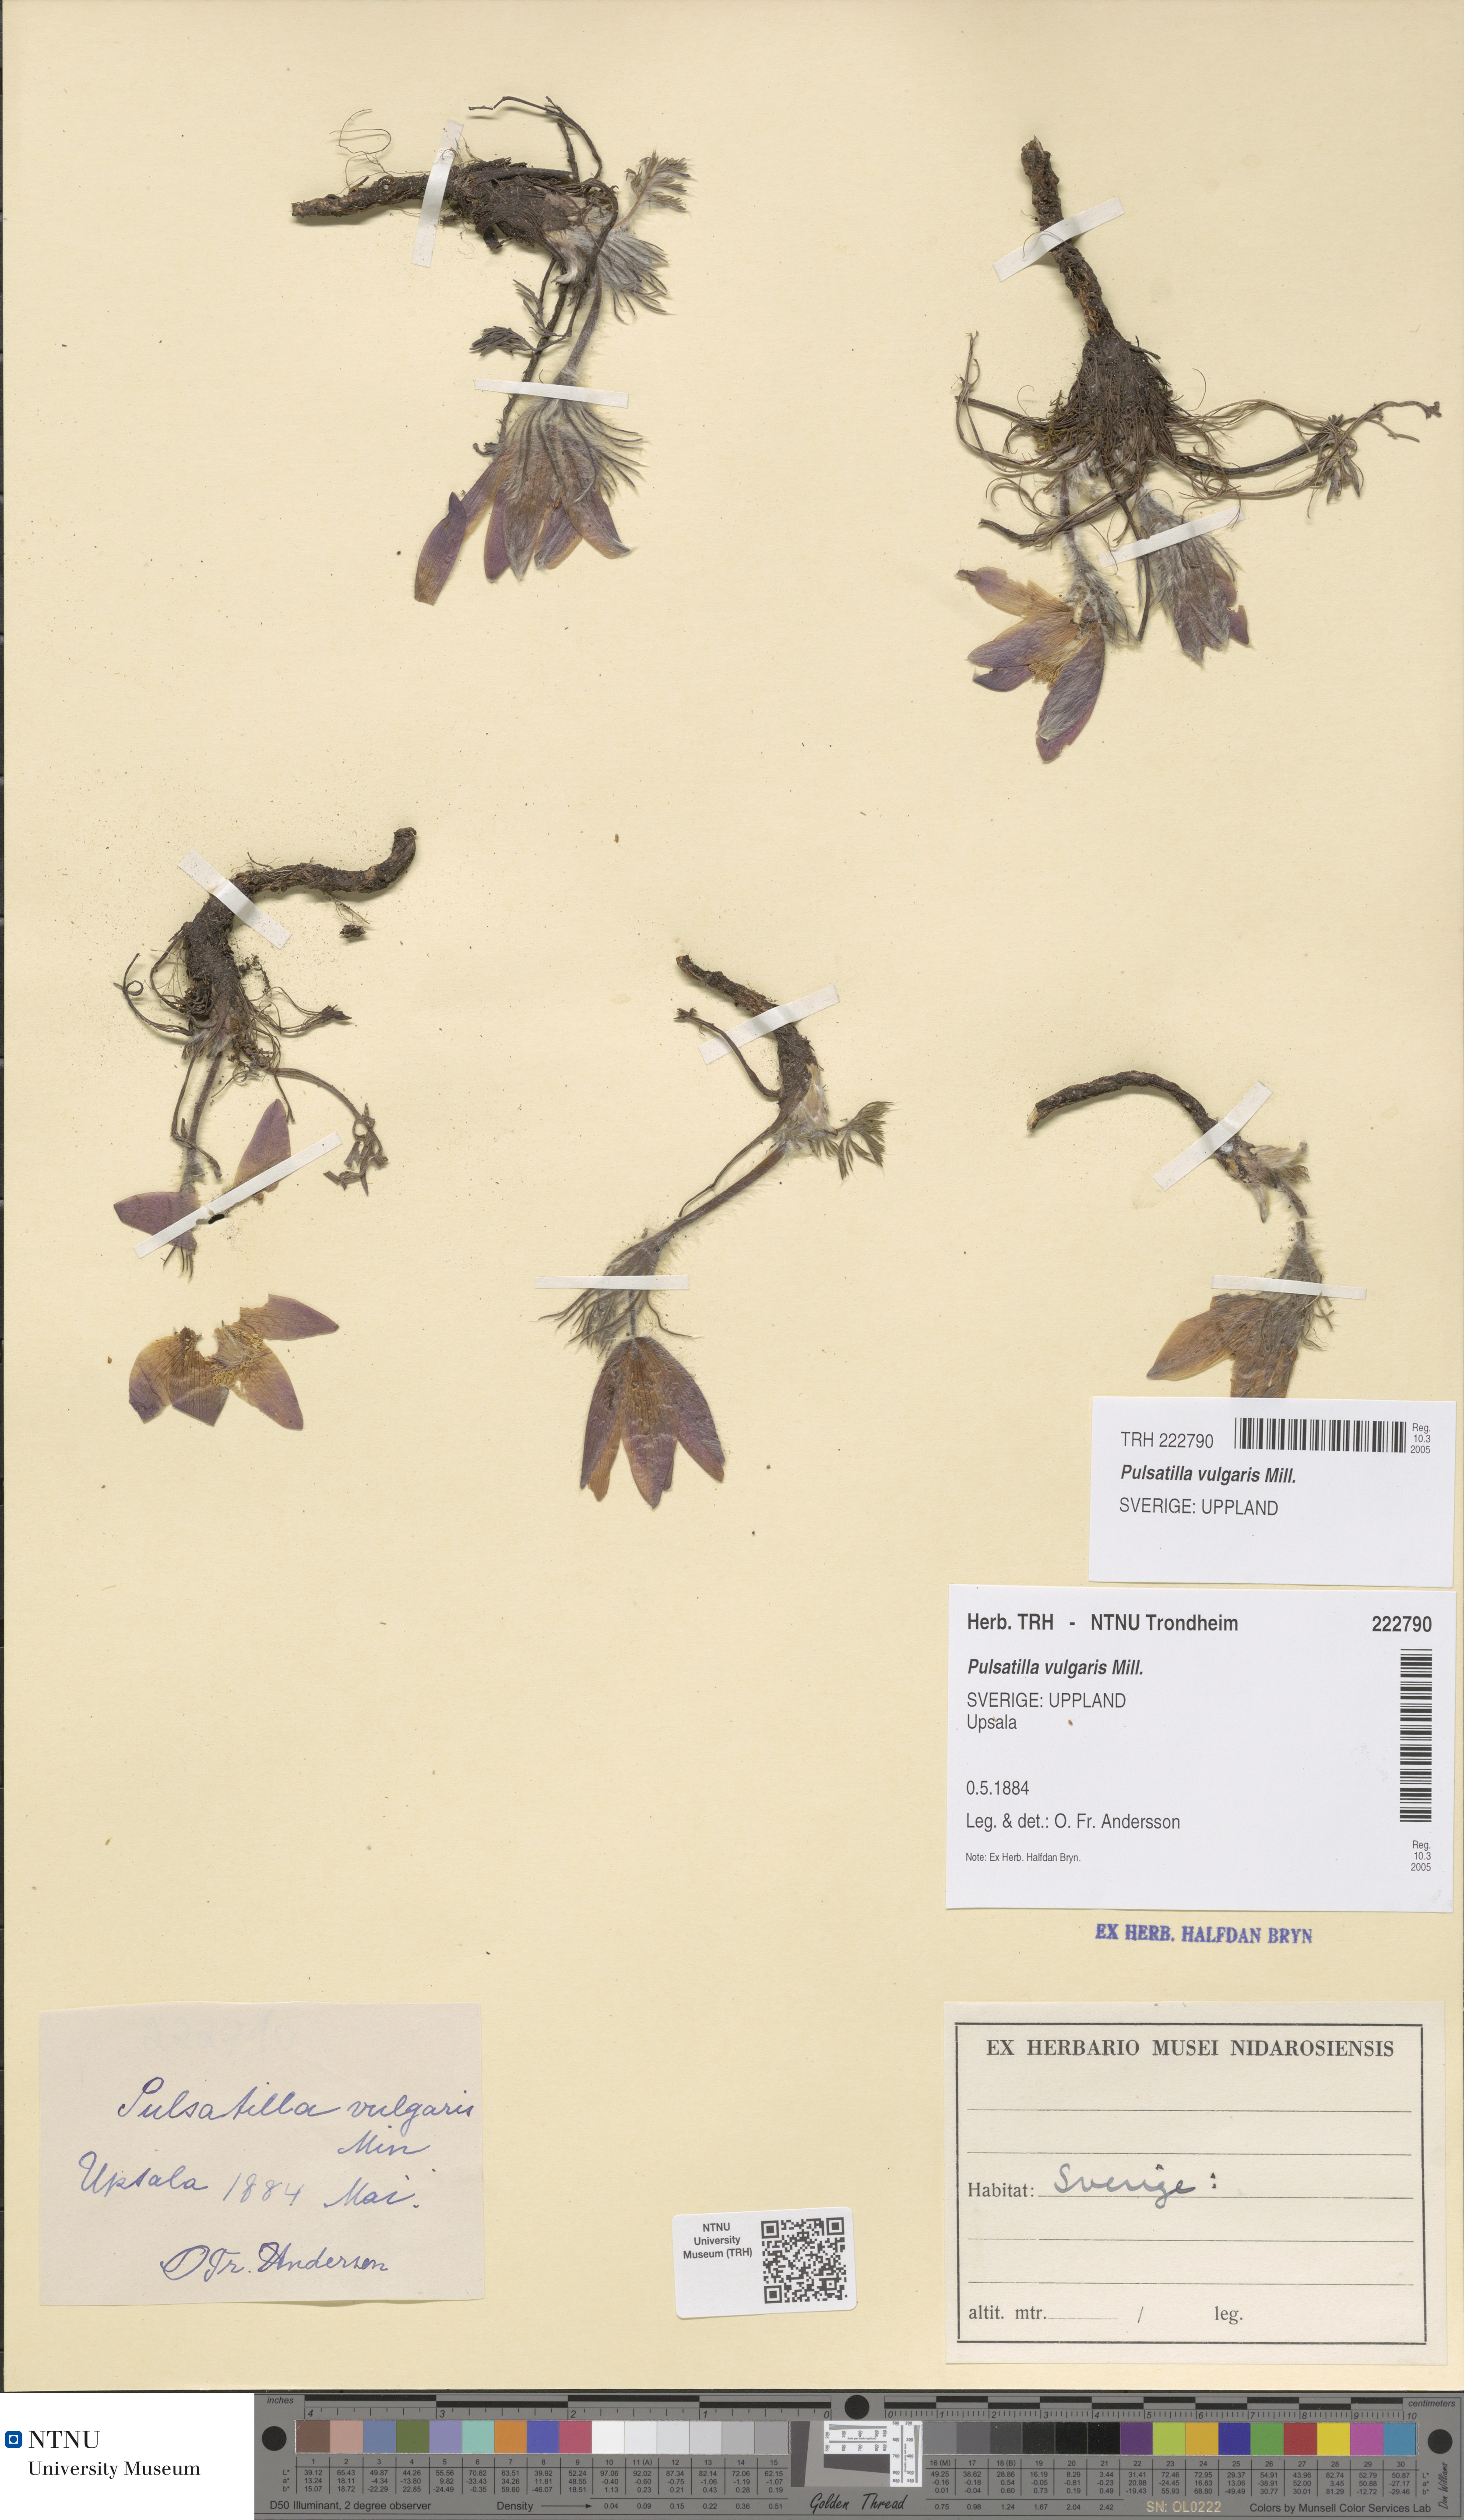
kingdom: Plantae
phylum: Tracheophyta
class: Magnoliopsida
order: Ranunculales
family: Ranunculaceae
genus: Pulsatilla
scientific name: Pulsatilla vulgaris
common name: Pasqueflower
